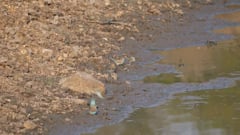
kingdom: Animalia
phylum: Chordata
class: Aves
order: Passeriformes
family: Estrildidae
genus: Uraeginthus
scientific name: Uraeginthus angolensis
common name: Blue waxbill
